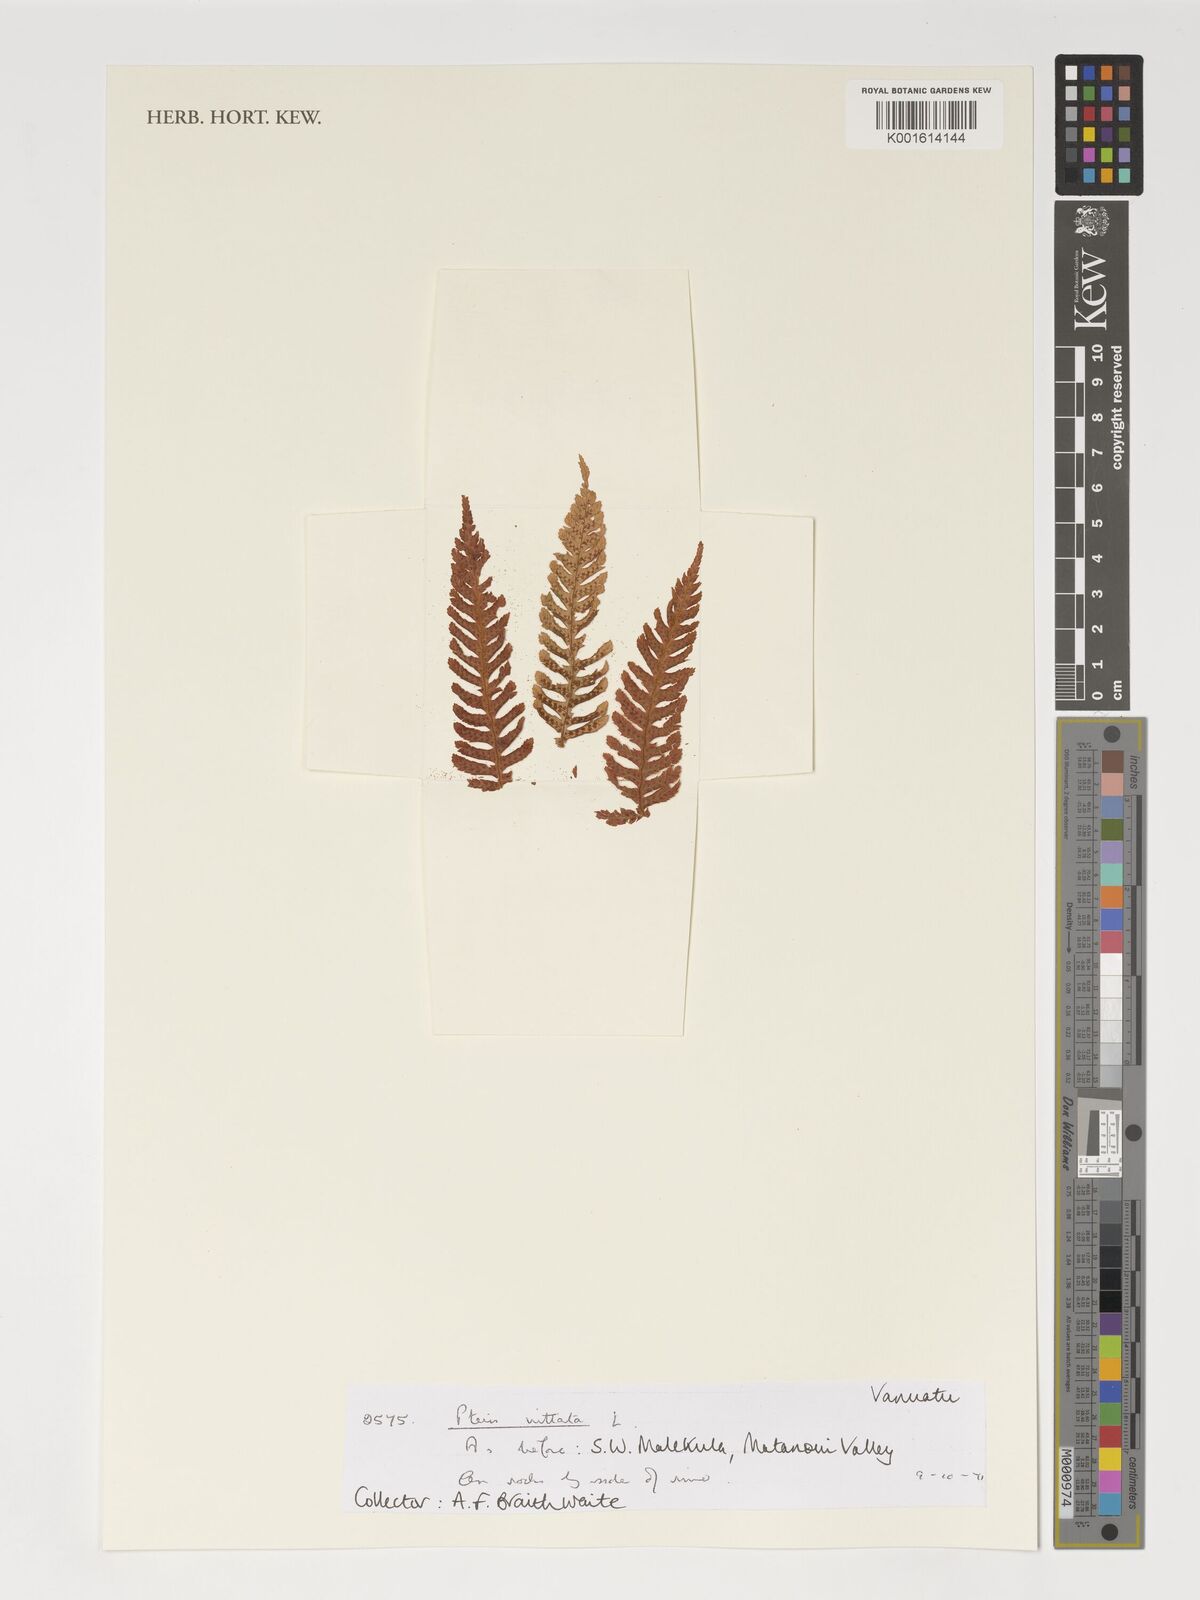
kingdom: Plantae
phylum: Tracheophyta
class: Polypodiopsida
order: Polypodiales
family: Pteridaceae
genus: Pteris
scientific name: Pteris vittata
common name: Ladder brake
